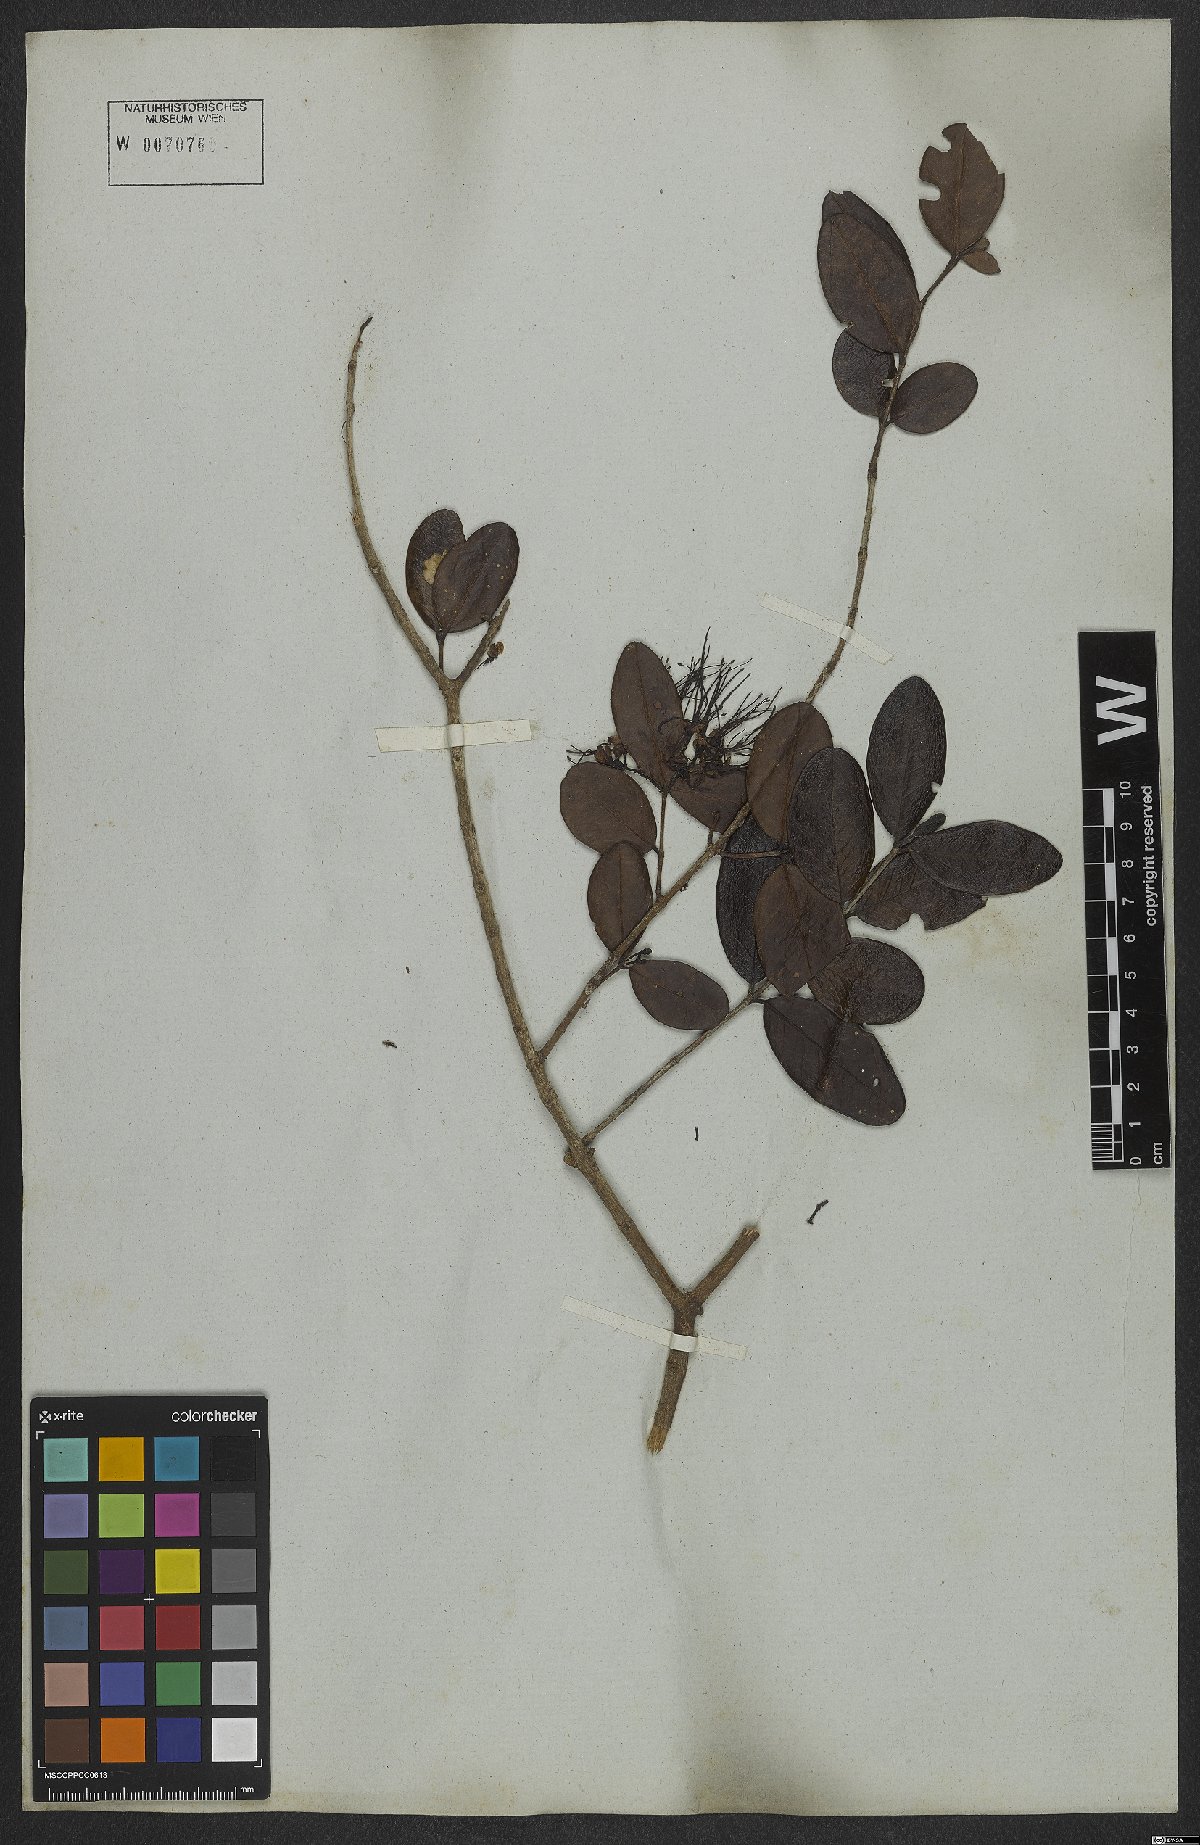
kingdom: Plantae
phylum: Tracheophyta
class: Magnoliopsida
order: Myrtales
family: Myrtaceae
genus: Myrrhinium
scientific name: Myrrhinium atropurpureum
